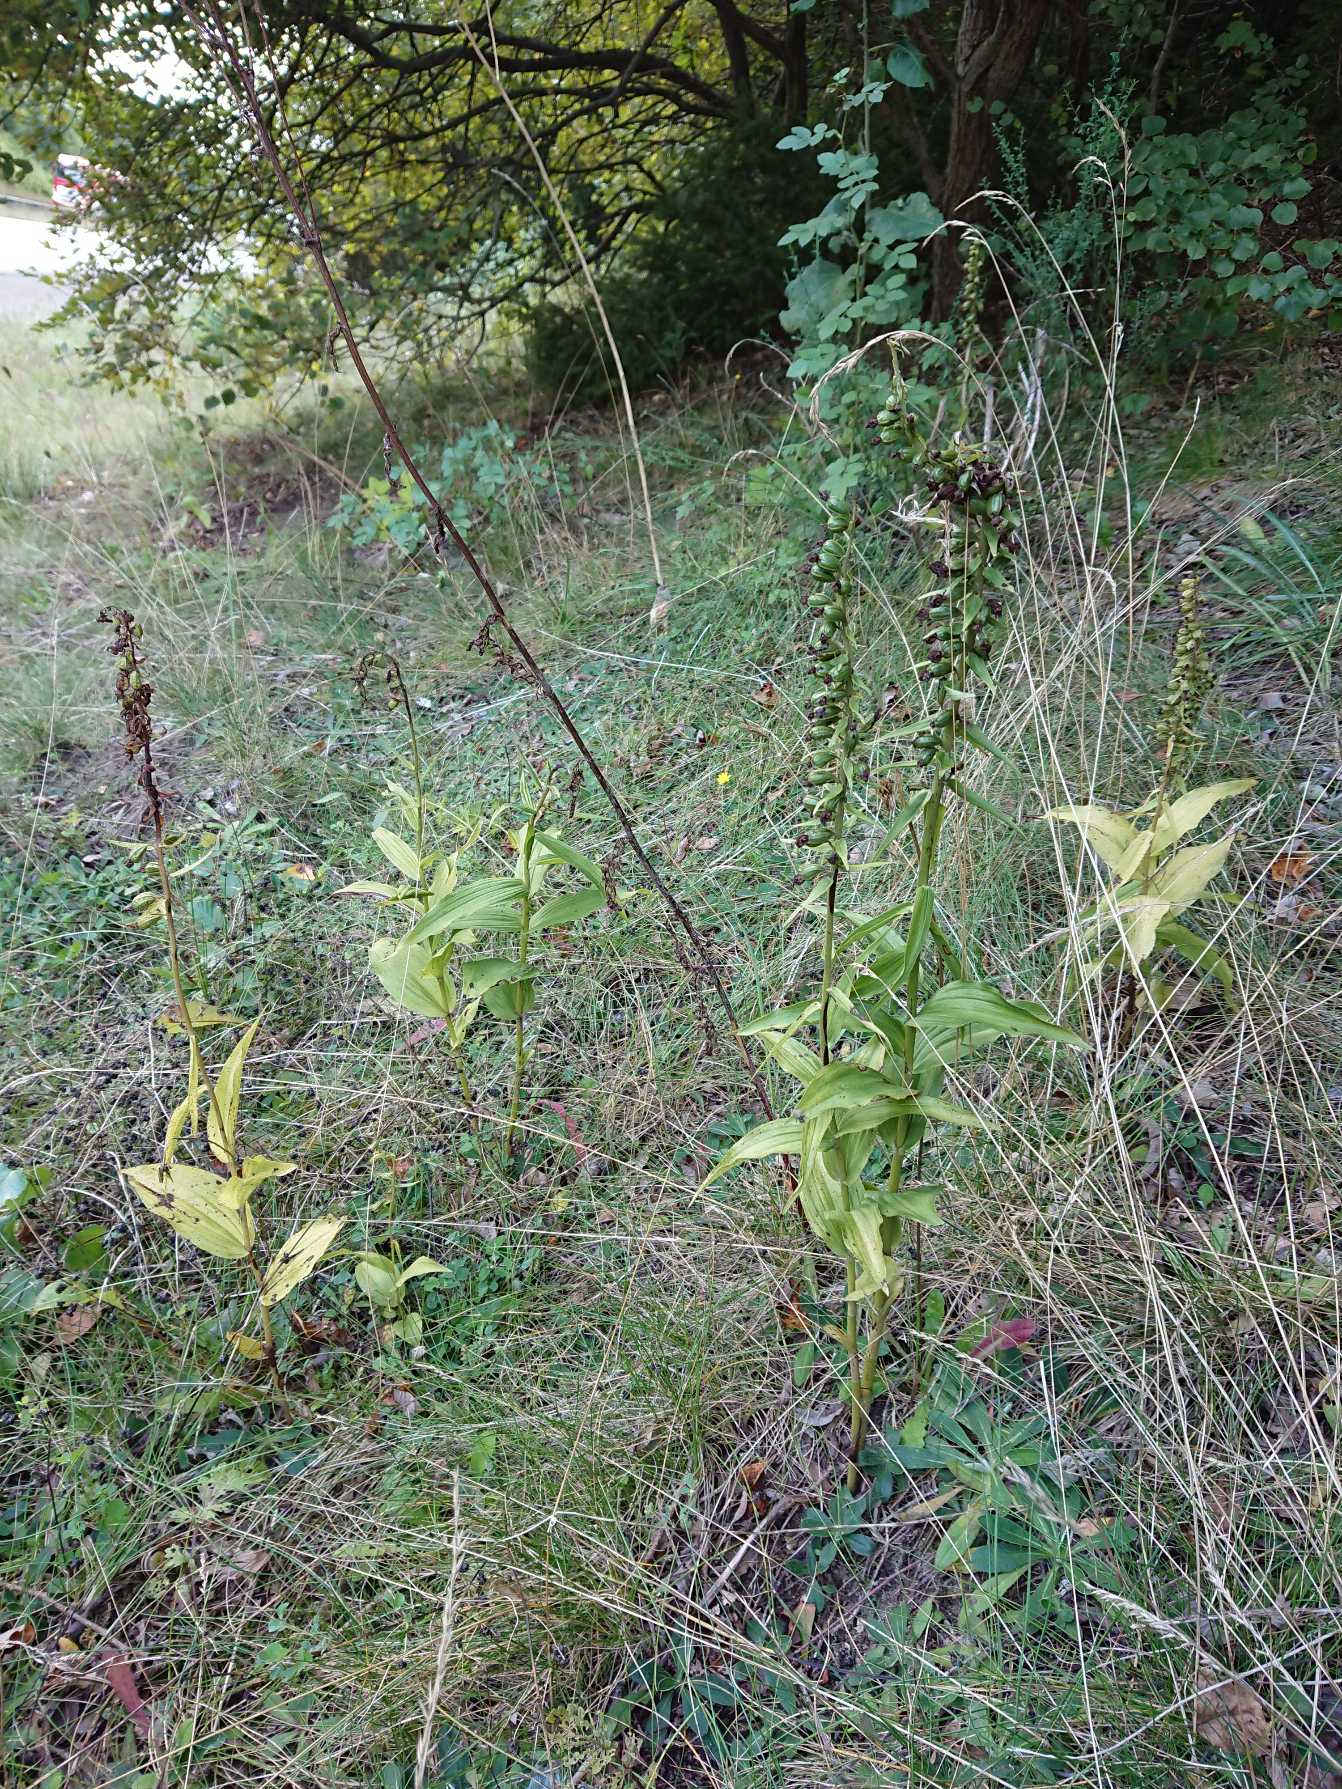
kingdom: Plantae
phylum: Tracheophyta
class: Liliopsida
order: Asparagales
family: Orchidaceae
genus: Epipactis
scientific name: Epipactis helleborine
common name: Skov-hullæbe
